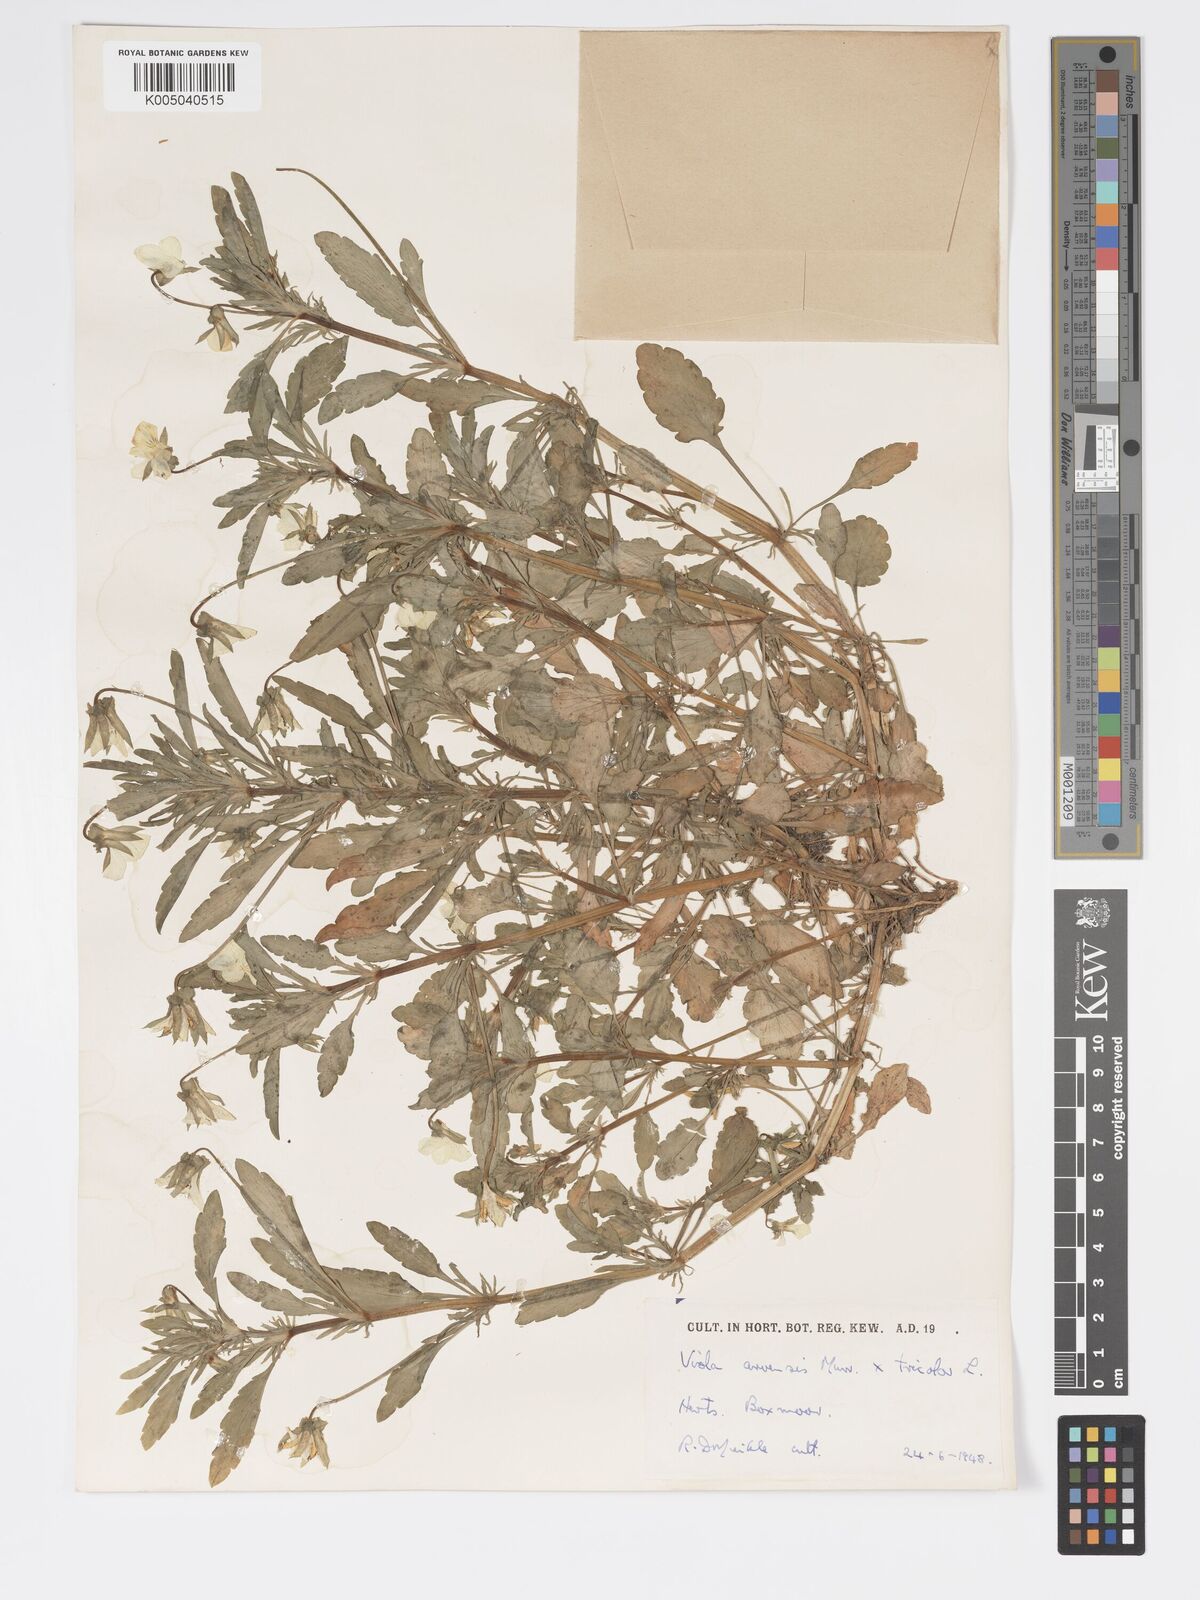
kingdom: Plantae
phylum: Tracheophyta
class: Magnoliopsida
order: Malpighiales
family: Violaceae
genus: Viola
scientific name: Viola arvensis
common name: Field pansy
